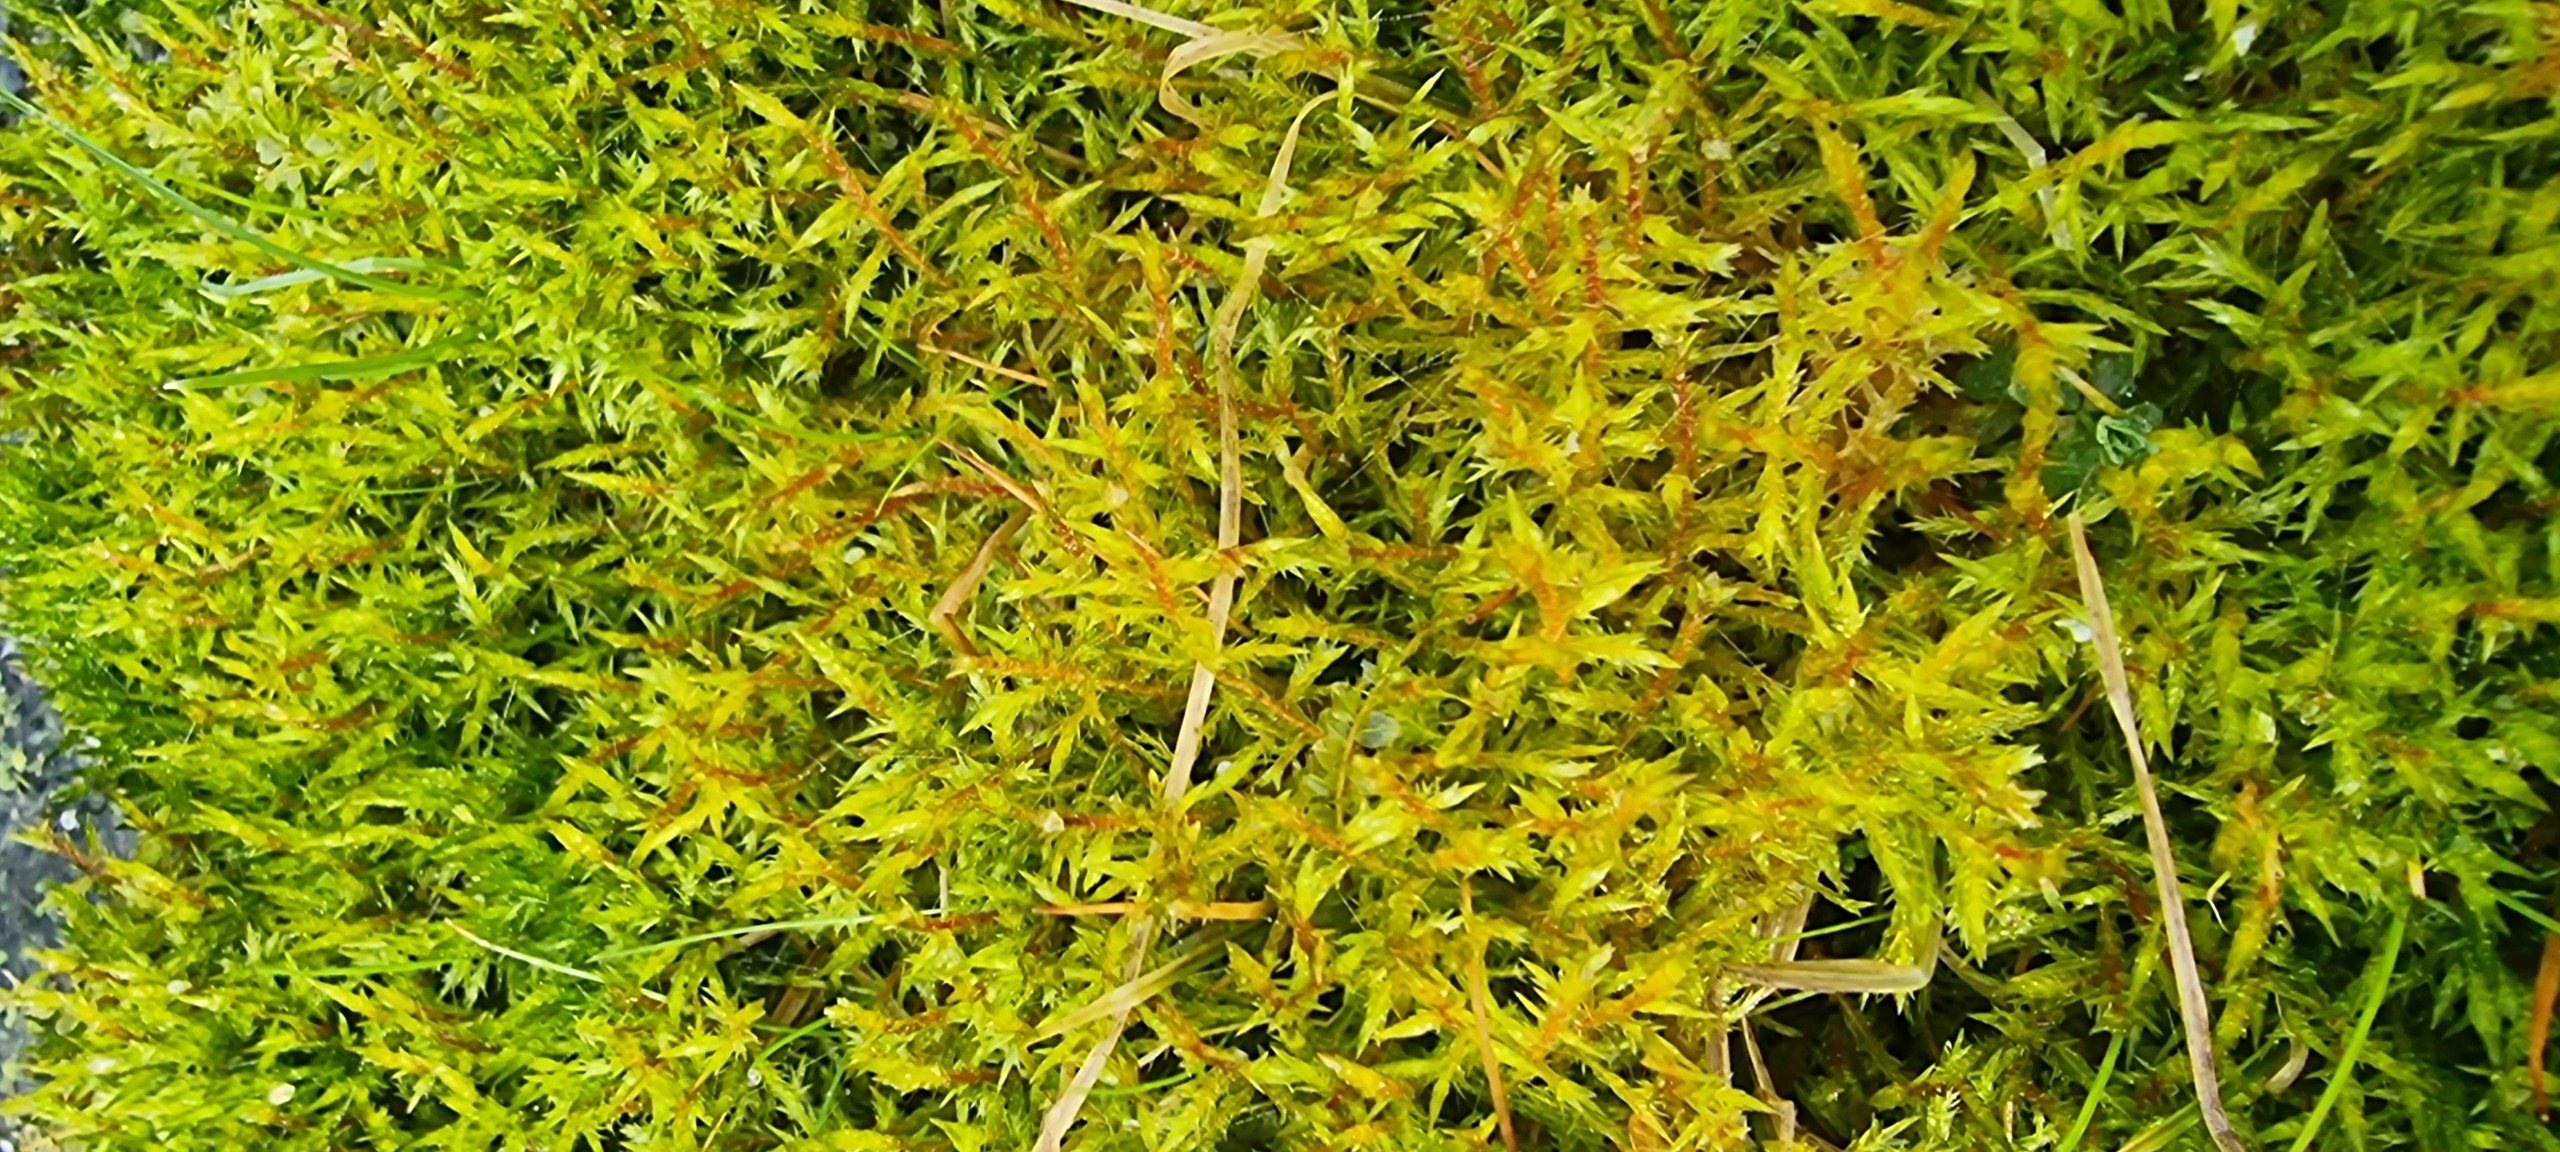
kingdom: Plantae
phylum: Bryophyta
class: Bryopsida
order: Hypnales
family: Pylaisiaceae
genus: Calliergonella
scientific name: Calliergonella cuspidata
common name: Spids spydmos
